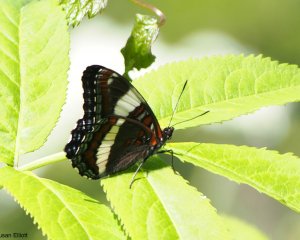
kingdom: Animalia
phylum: Arthropoda
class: Insecta
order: Lepidoptera
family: Nymphalidae
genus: Limenitis
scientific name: Limenitis arthemis
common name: Red-spotted Admiral
